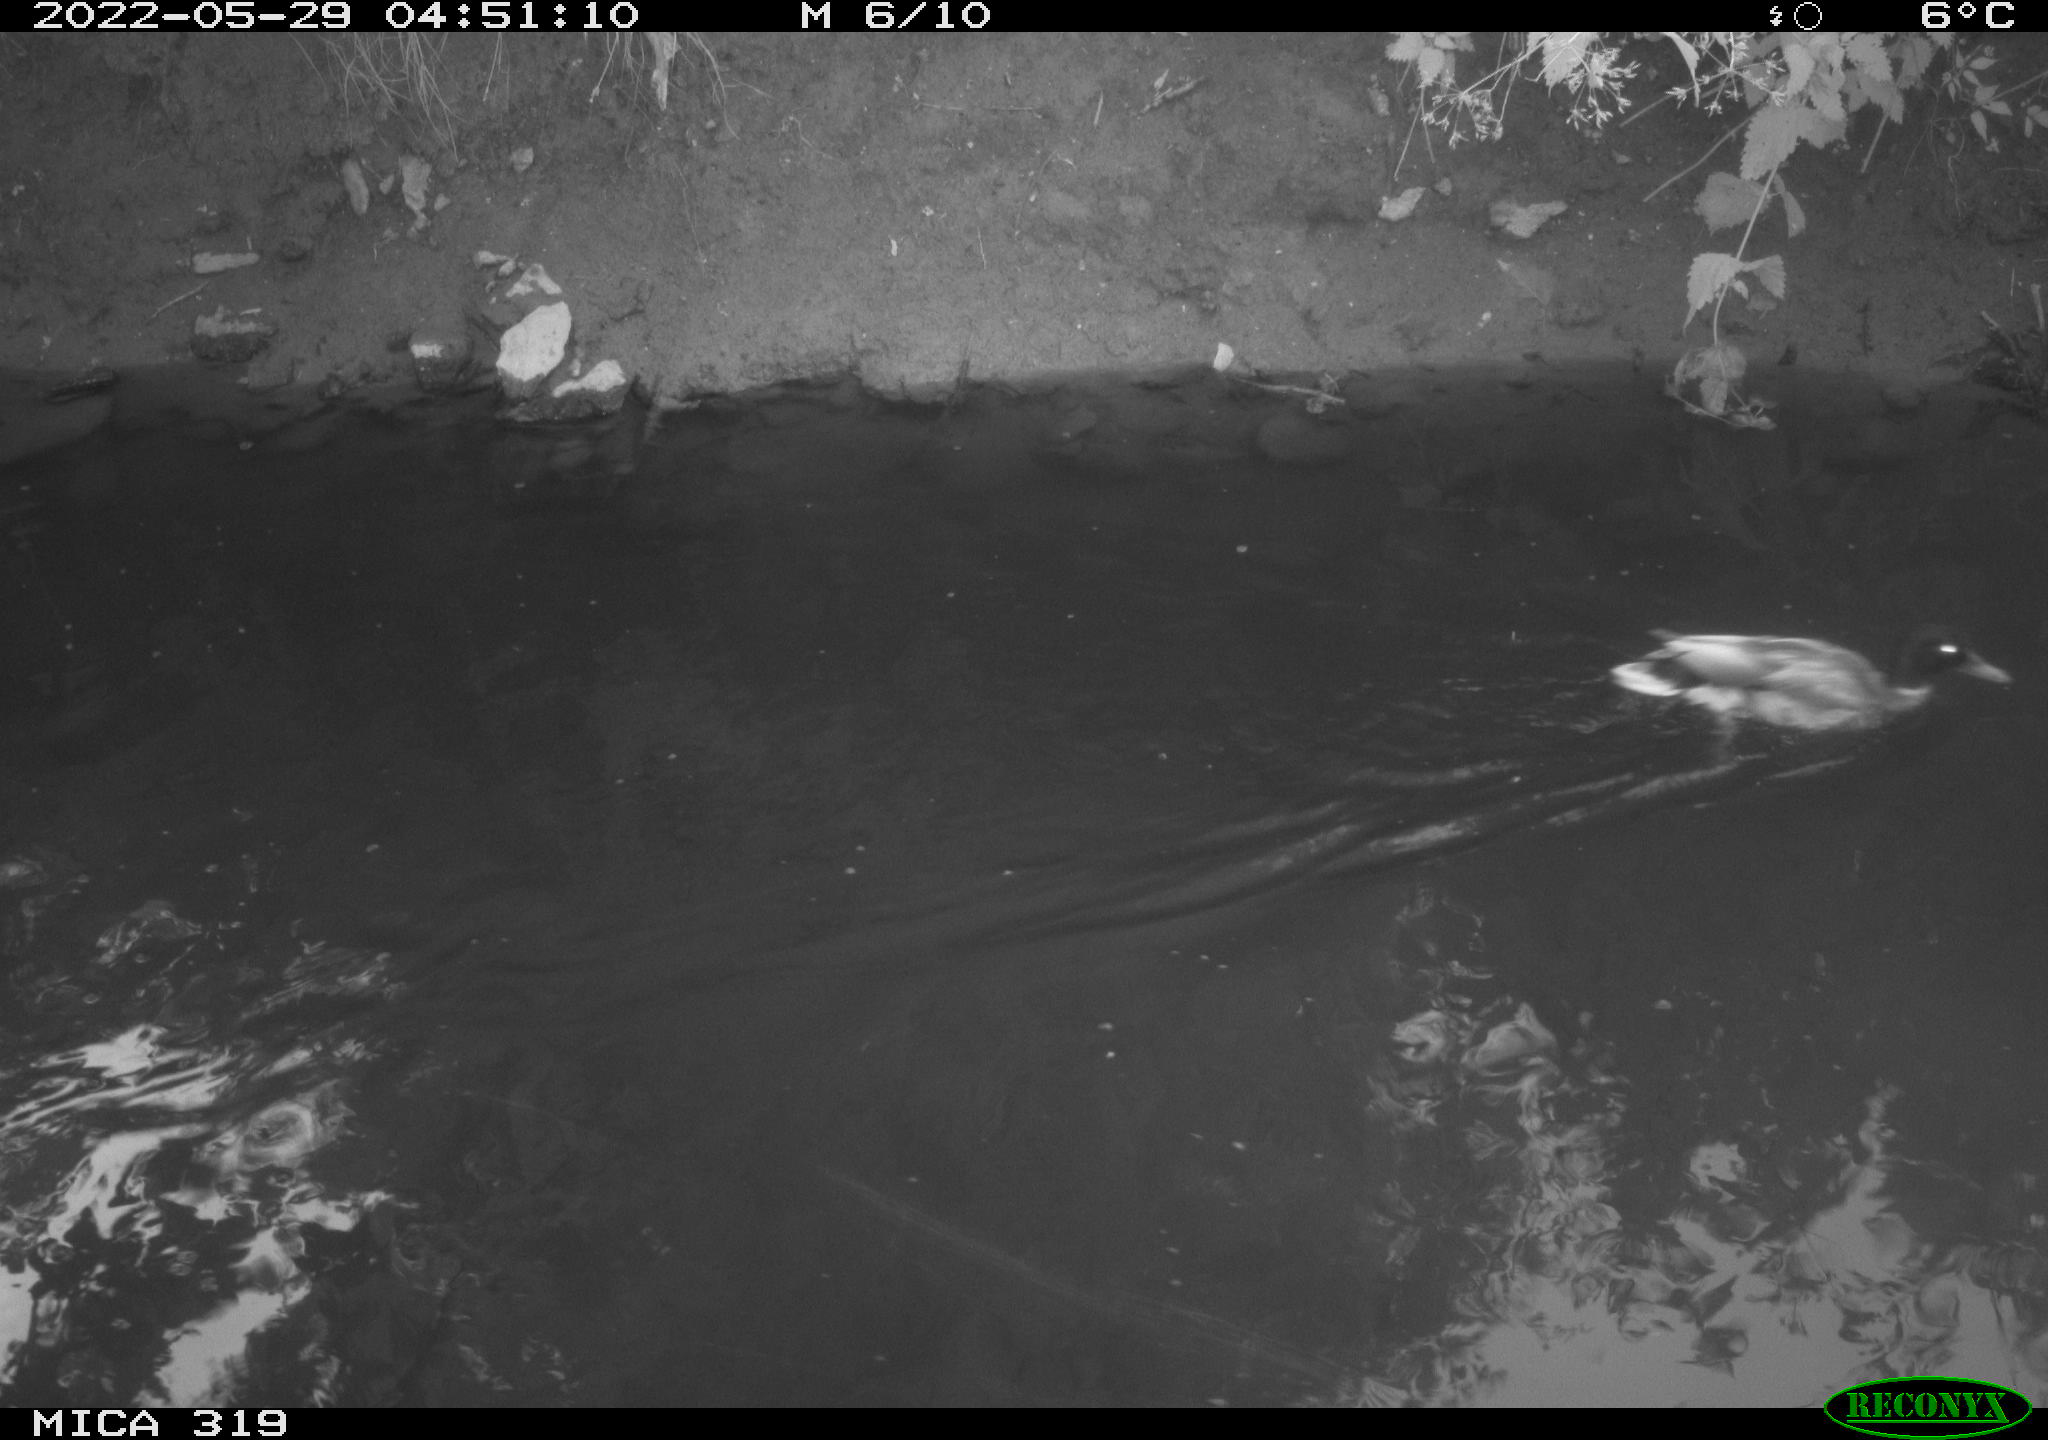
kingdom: Animalia
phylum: Chordata
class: Aves
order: Anseriformes
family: Anatidae
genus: Anas
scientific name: Anas
